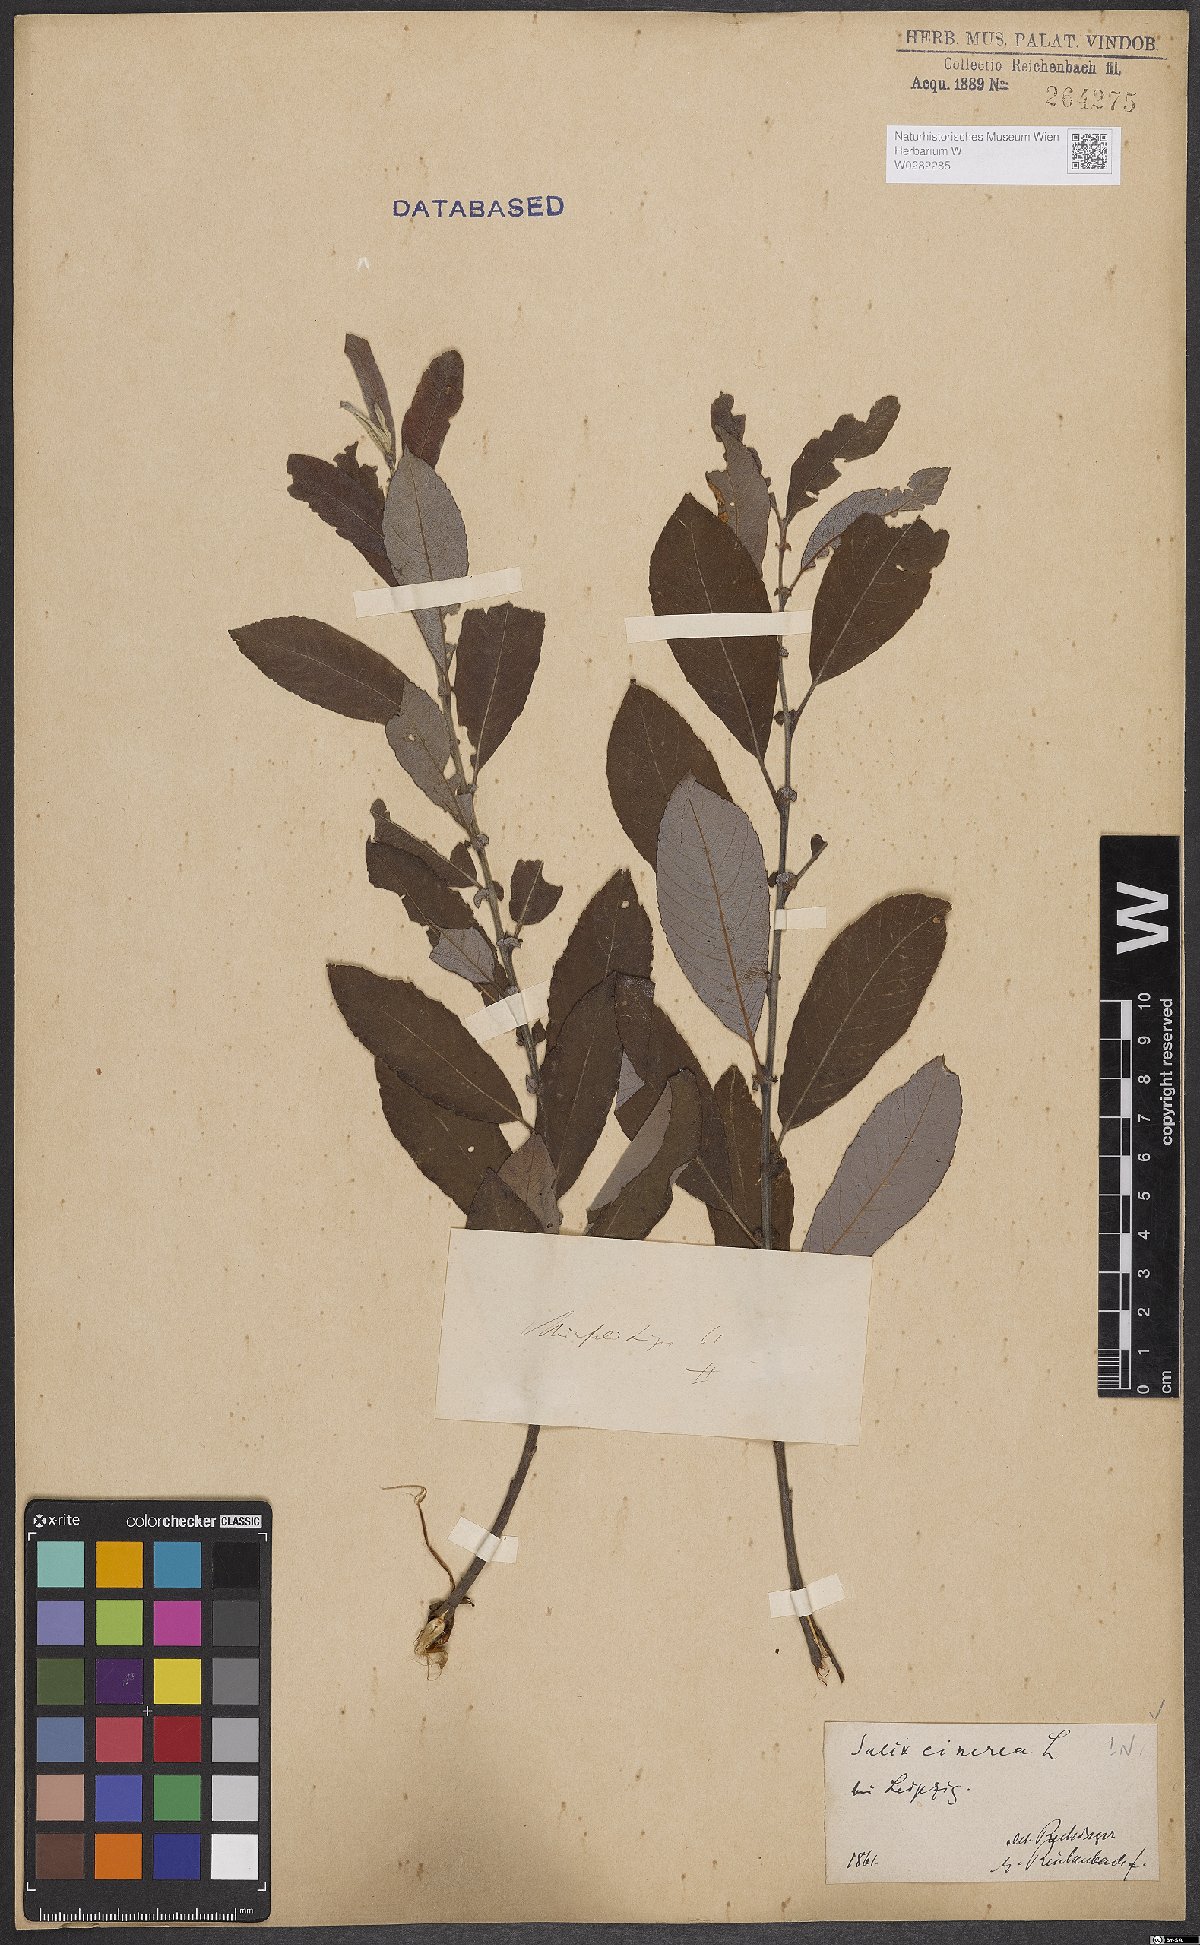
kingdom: Plantae
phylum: Tracheophyta
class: Magnoliopsida
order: Malpighiales
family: Salicaceae
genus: Salix
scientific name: Salix cinerea
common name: Common sallow
